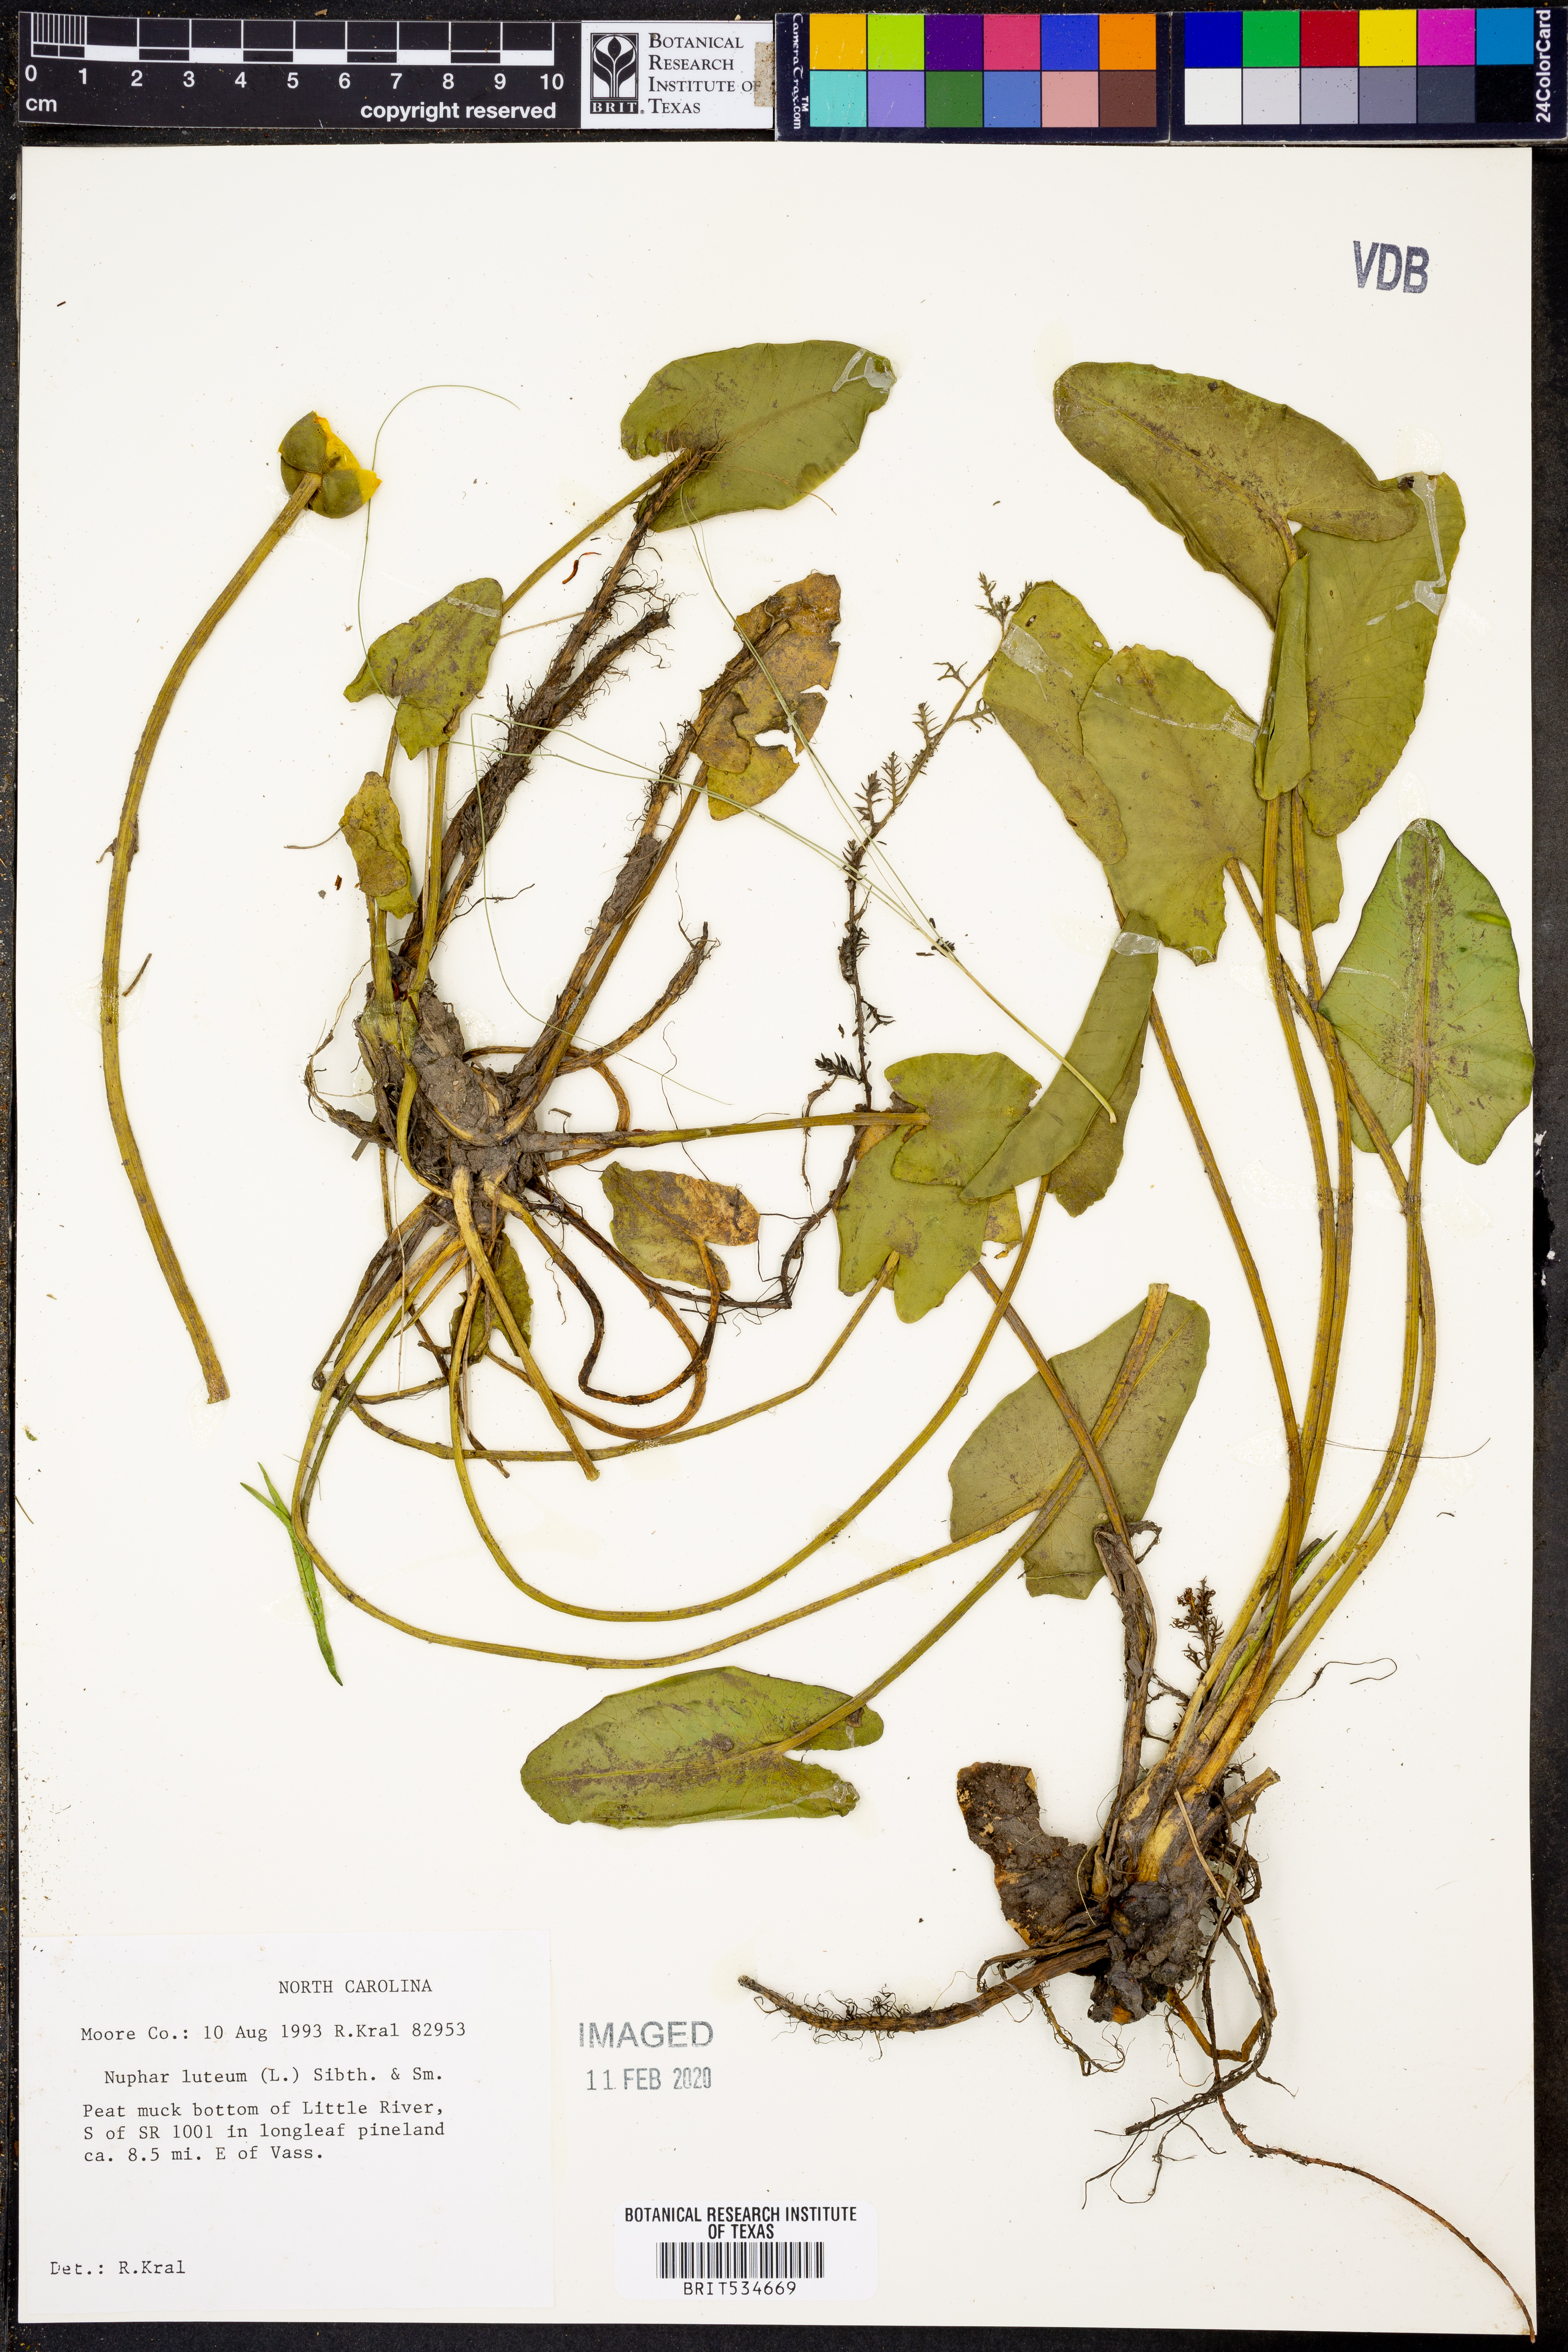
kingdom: Plantae
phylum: Tracheophyta
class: Magnoliopsida
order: Nymphaeales
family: Nymphaeaceae
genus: Nuphar
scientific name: Nuphar lutea
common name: Yellow water-lily
